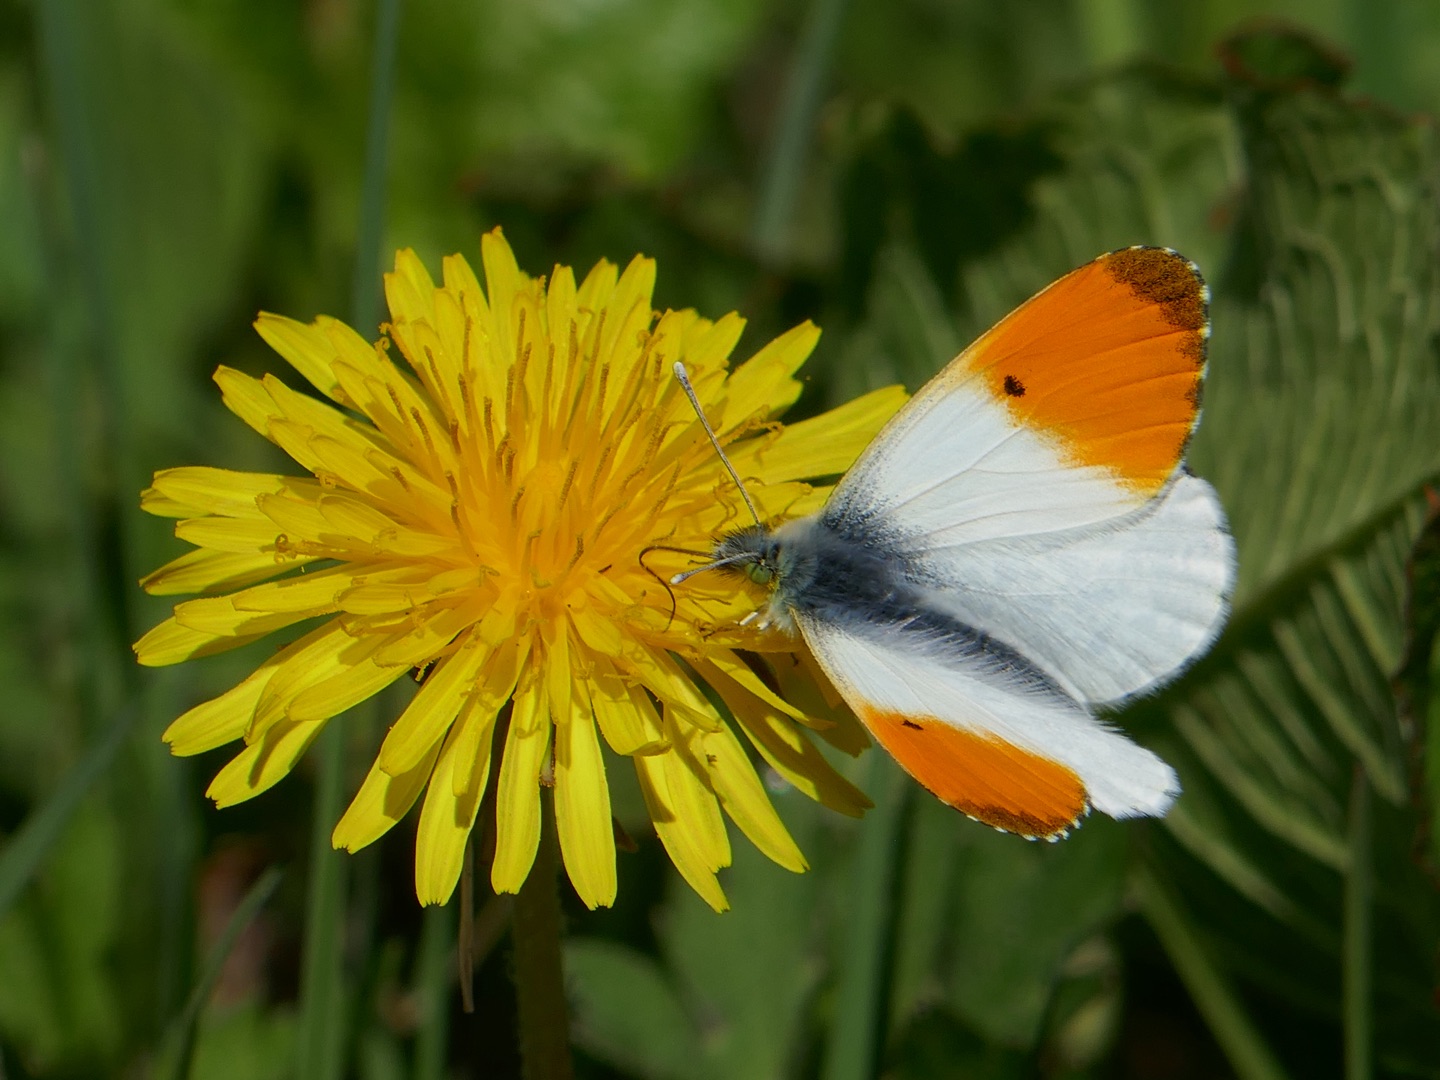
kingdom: Animalia
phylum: Arthropoda
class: Insecta
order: Lepidoptera
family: Pieridae
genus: Anthocharis
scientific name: Anthocharis cardamines
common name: Aurora
